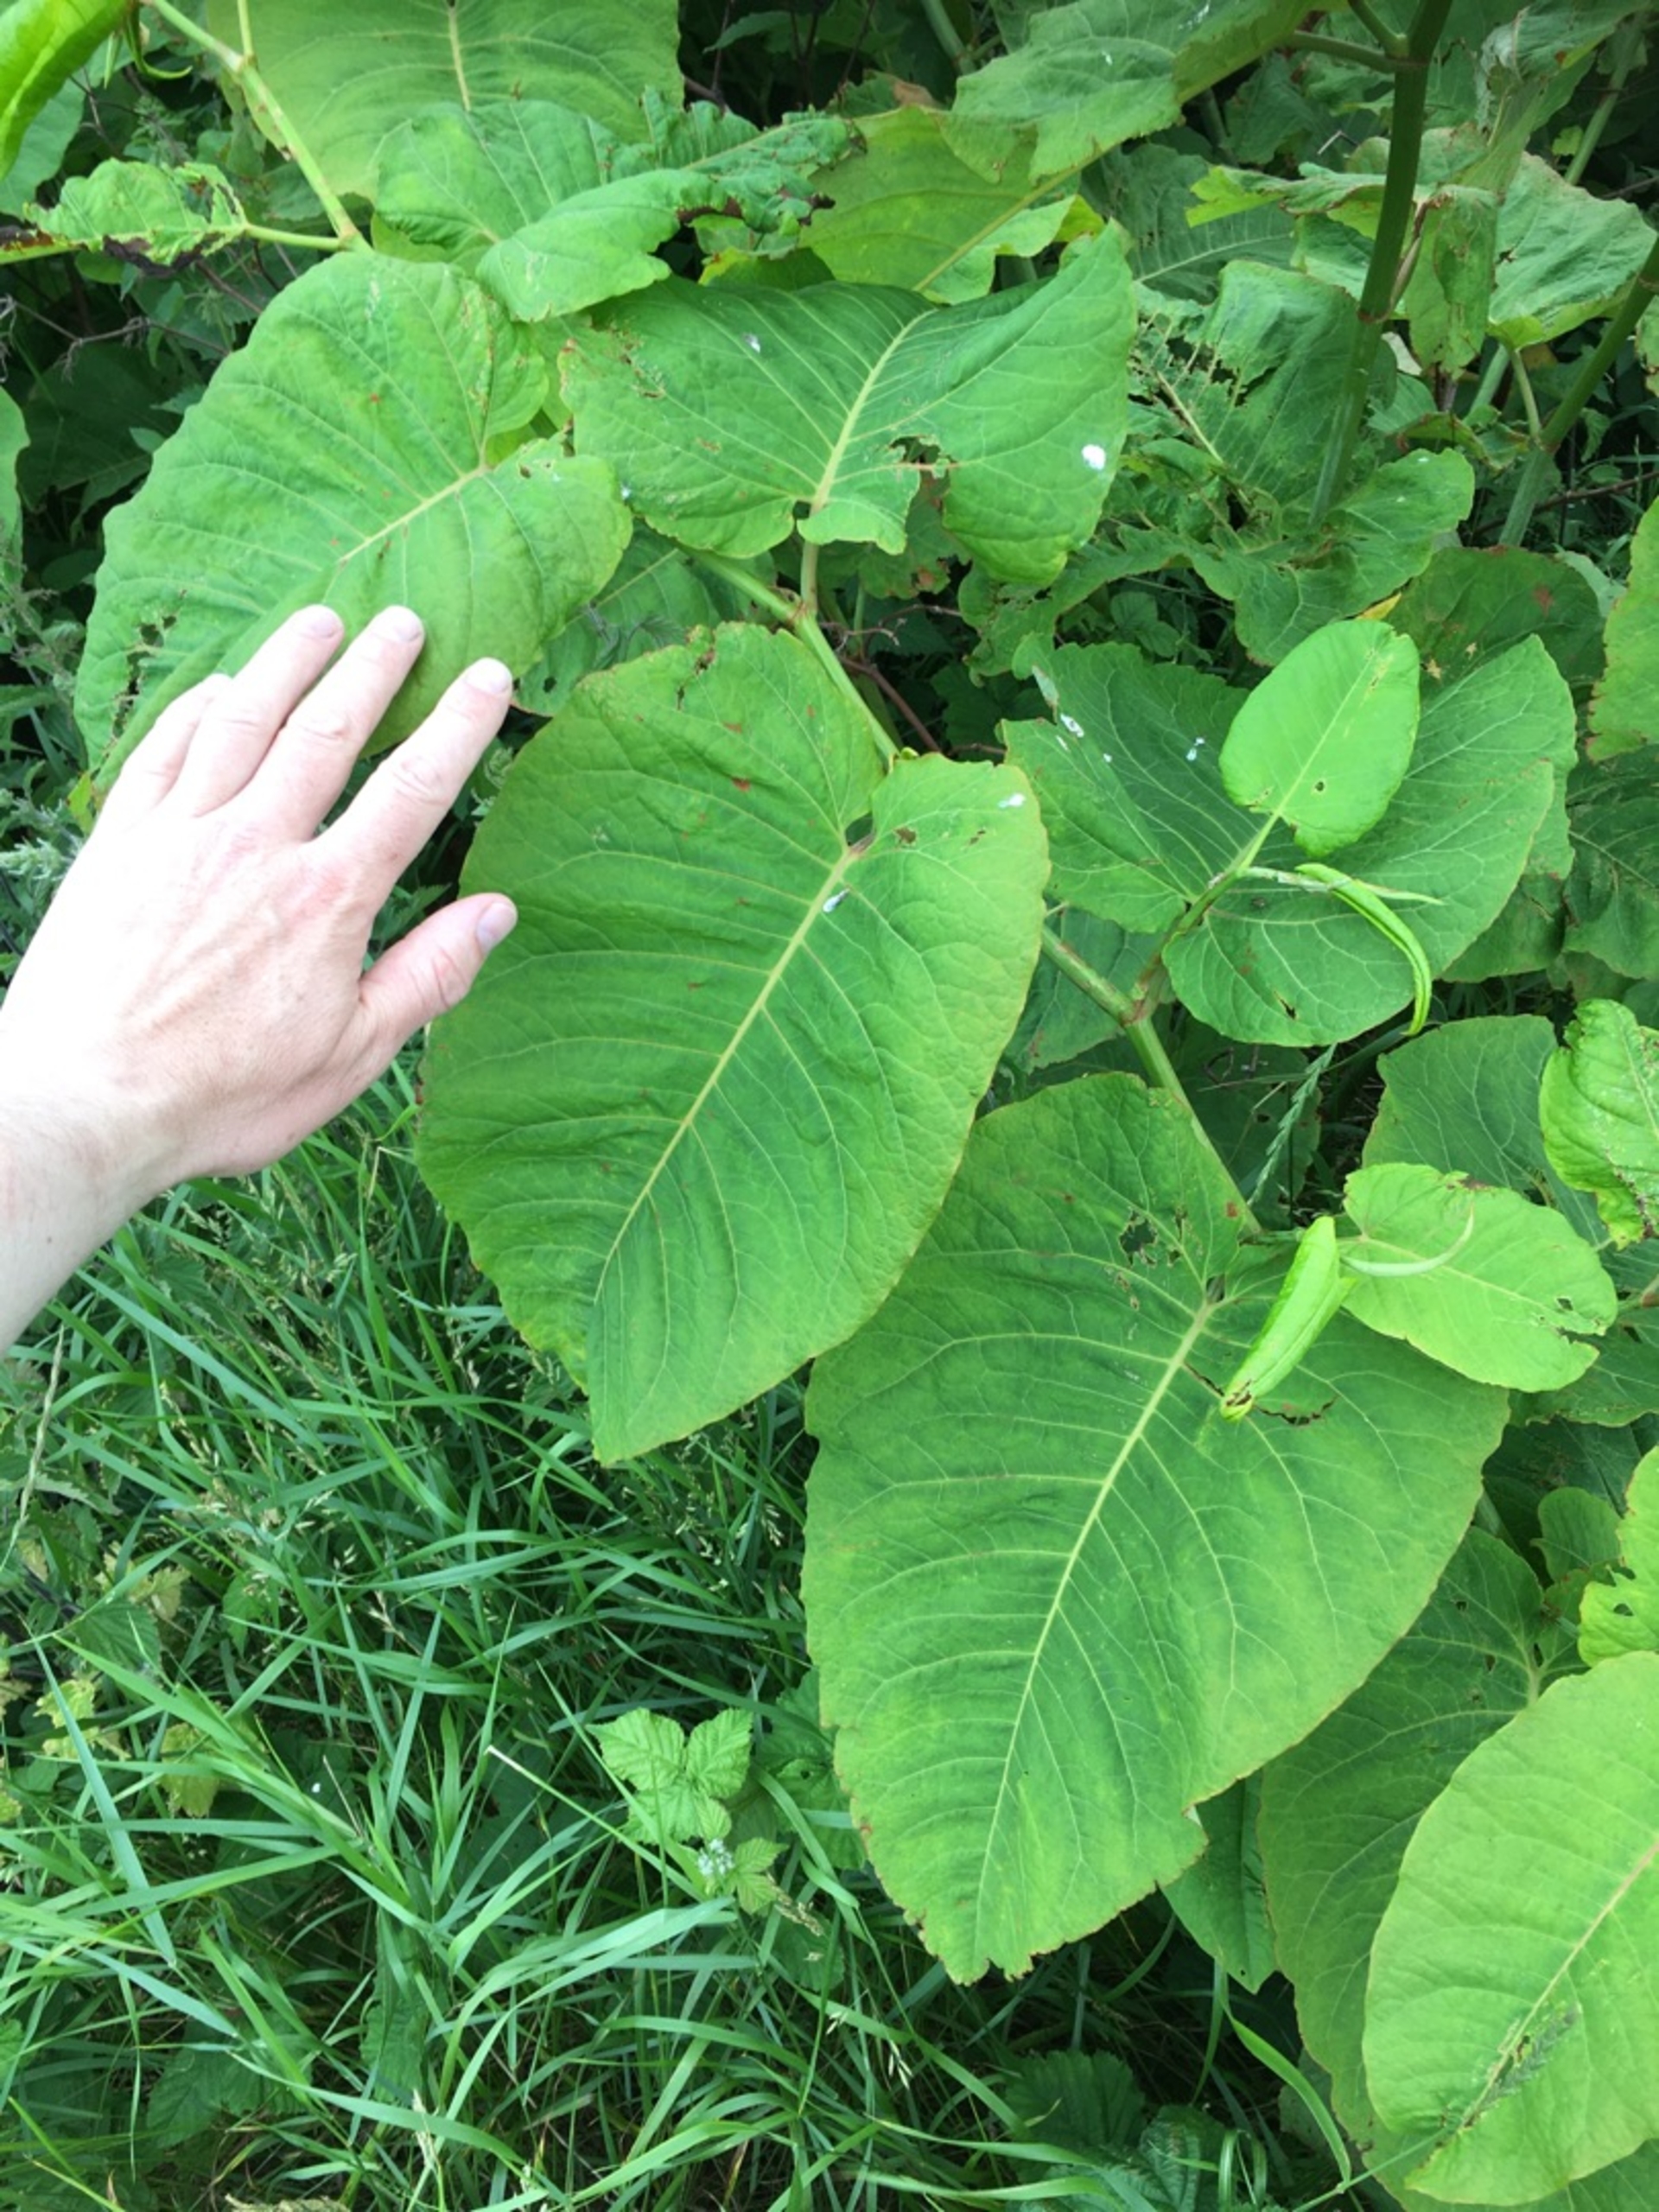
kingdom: Plantae
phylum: Tracheophyta
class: Magnoliopsida
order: Caryophyllales
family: Polygonaceae
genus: Reynoutria
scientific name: Reynoutria sachalinensis
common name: Kæmpe-pileurt
